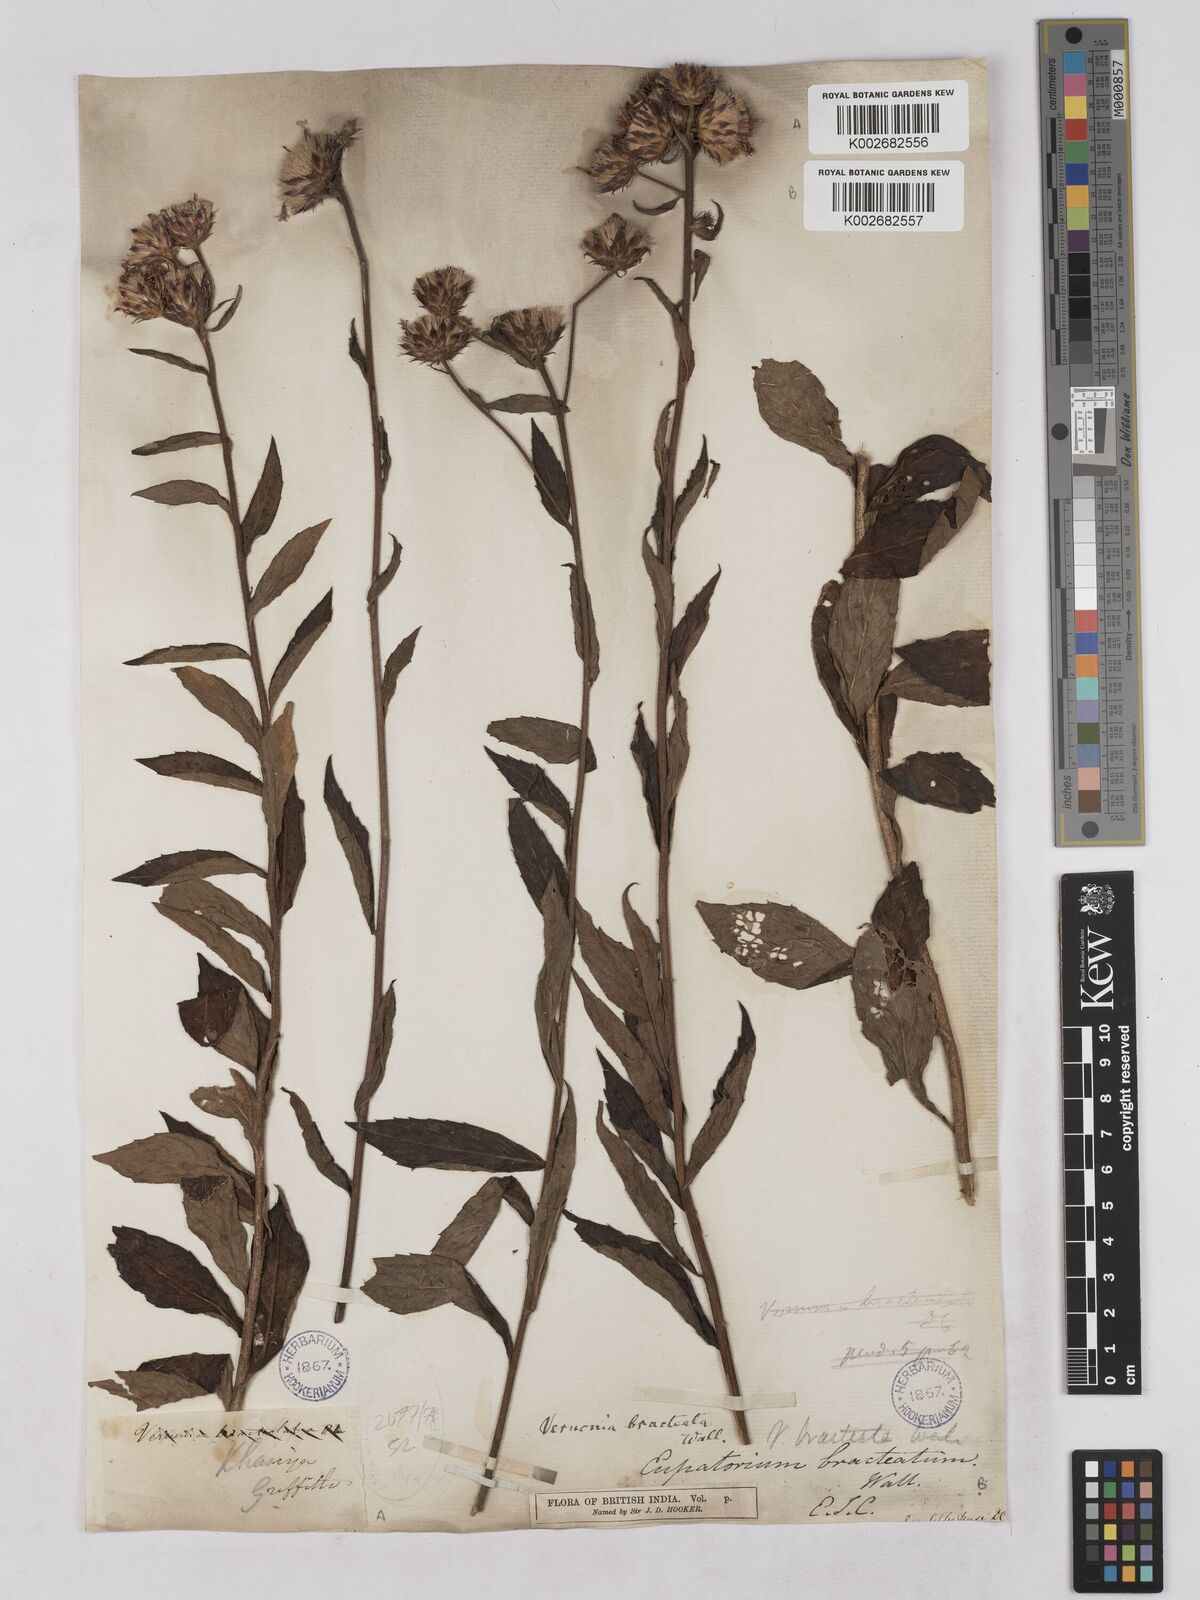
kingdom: Plantae
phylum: Tracheophyta
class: Magnoliopsida
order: Asterales
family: Asteraceae
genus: Acilepis
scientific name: Acilepis silhetensis
